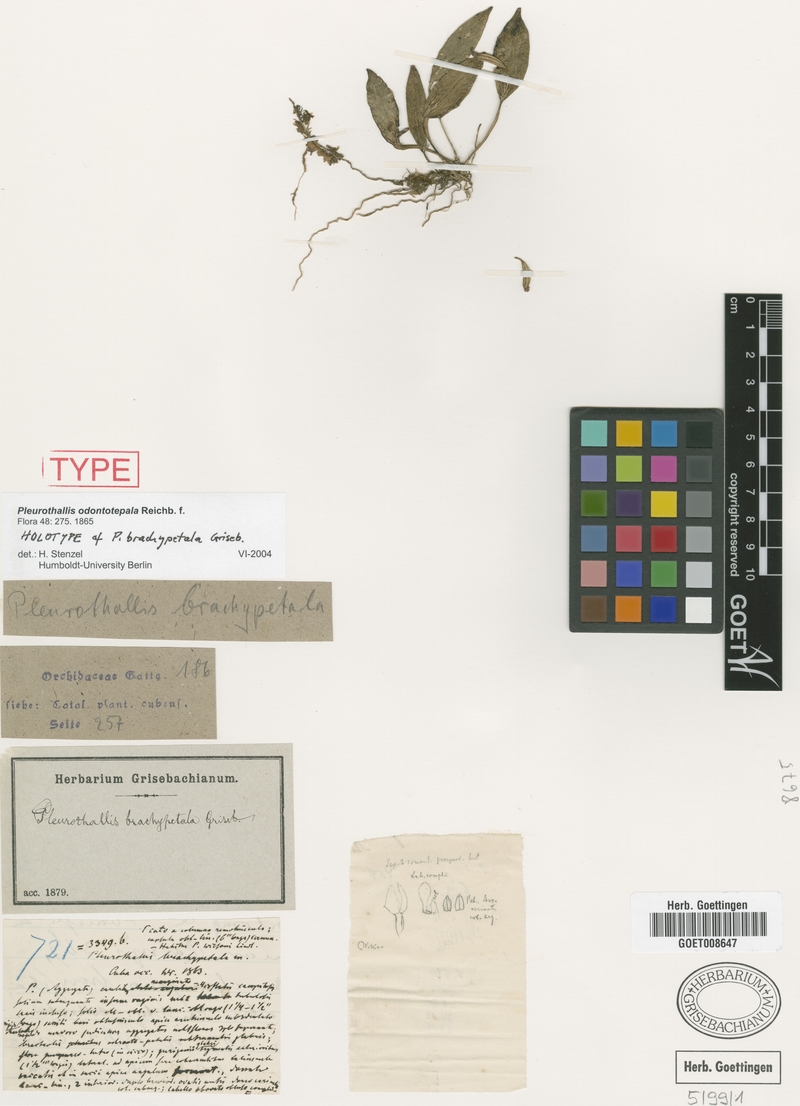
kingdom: Plantae
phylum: Tracheophyta
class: Liliopsida
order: Asparagales
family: Orchidaceae
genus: Acianthera
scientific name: Acianthera odontotepala
